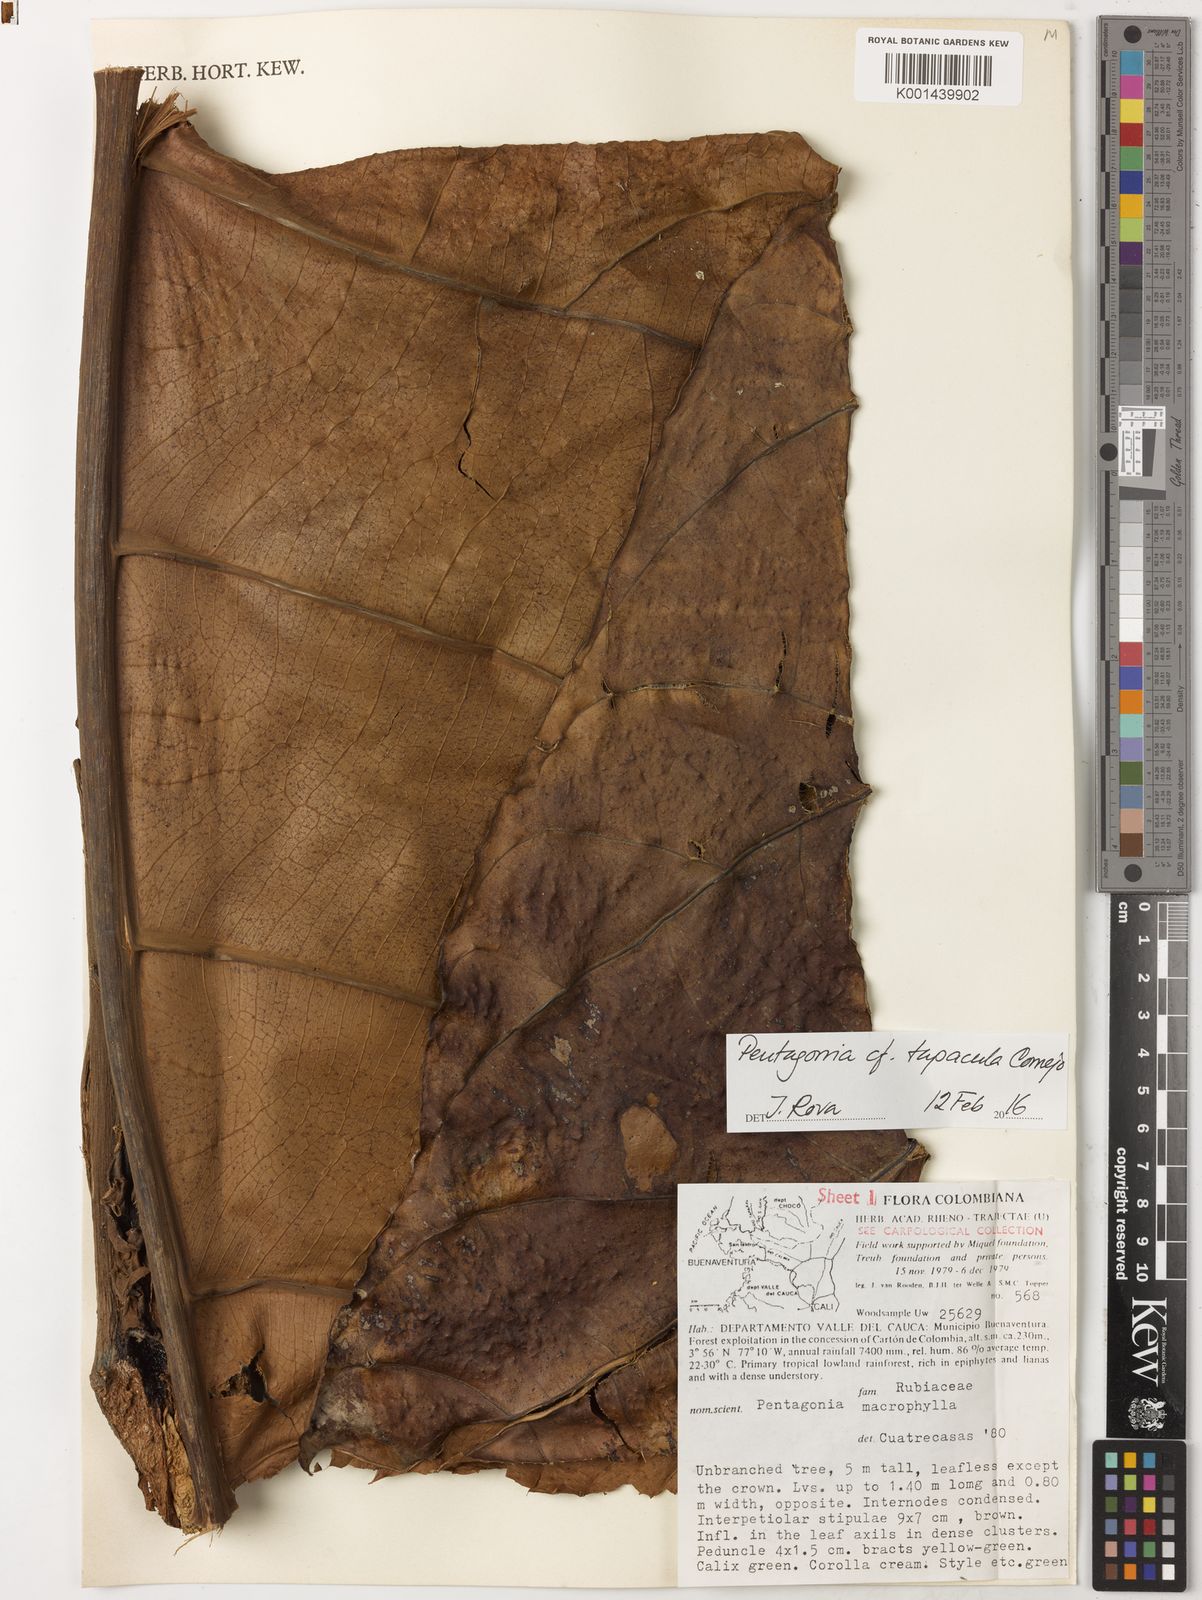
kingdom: Plantae
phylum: Tracheophyta
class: Magnoliopsida
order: Gentianales
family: Rubiaceae
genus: Pentagonia
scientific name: Pentagonia tapacula
